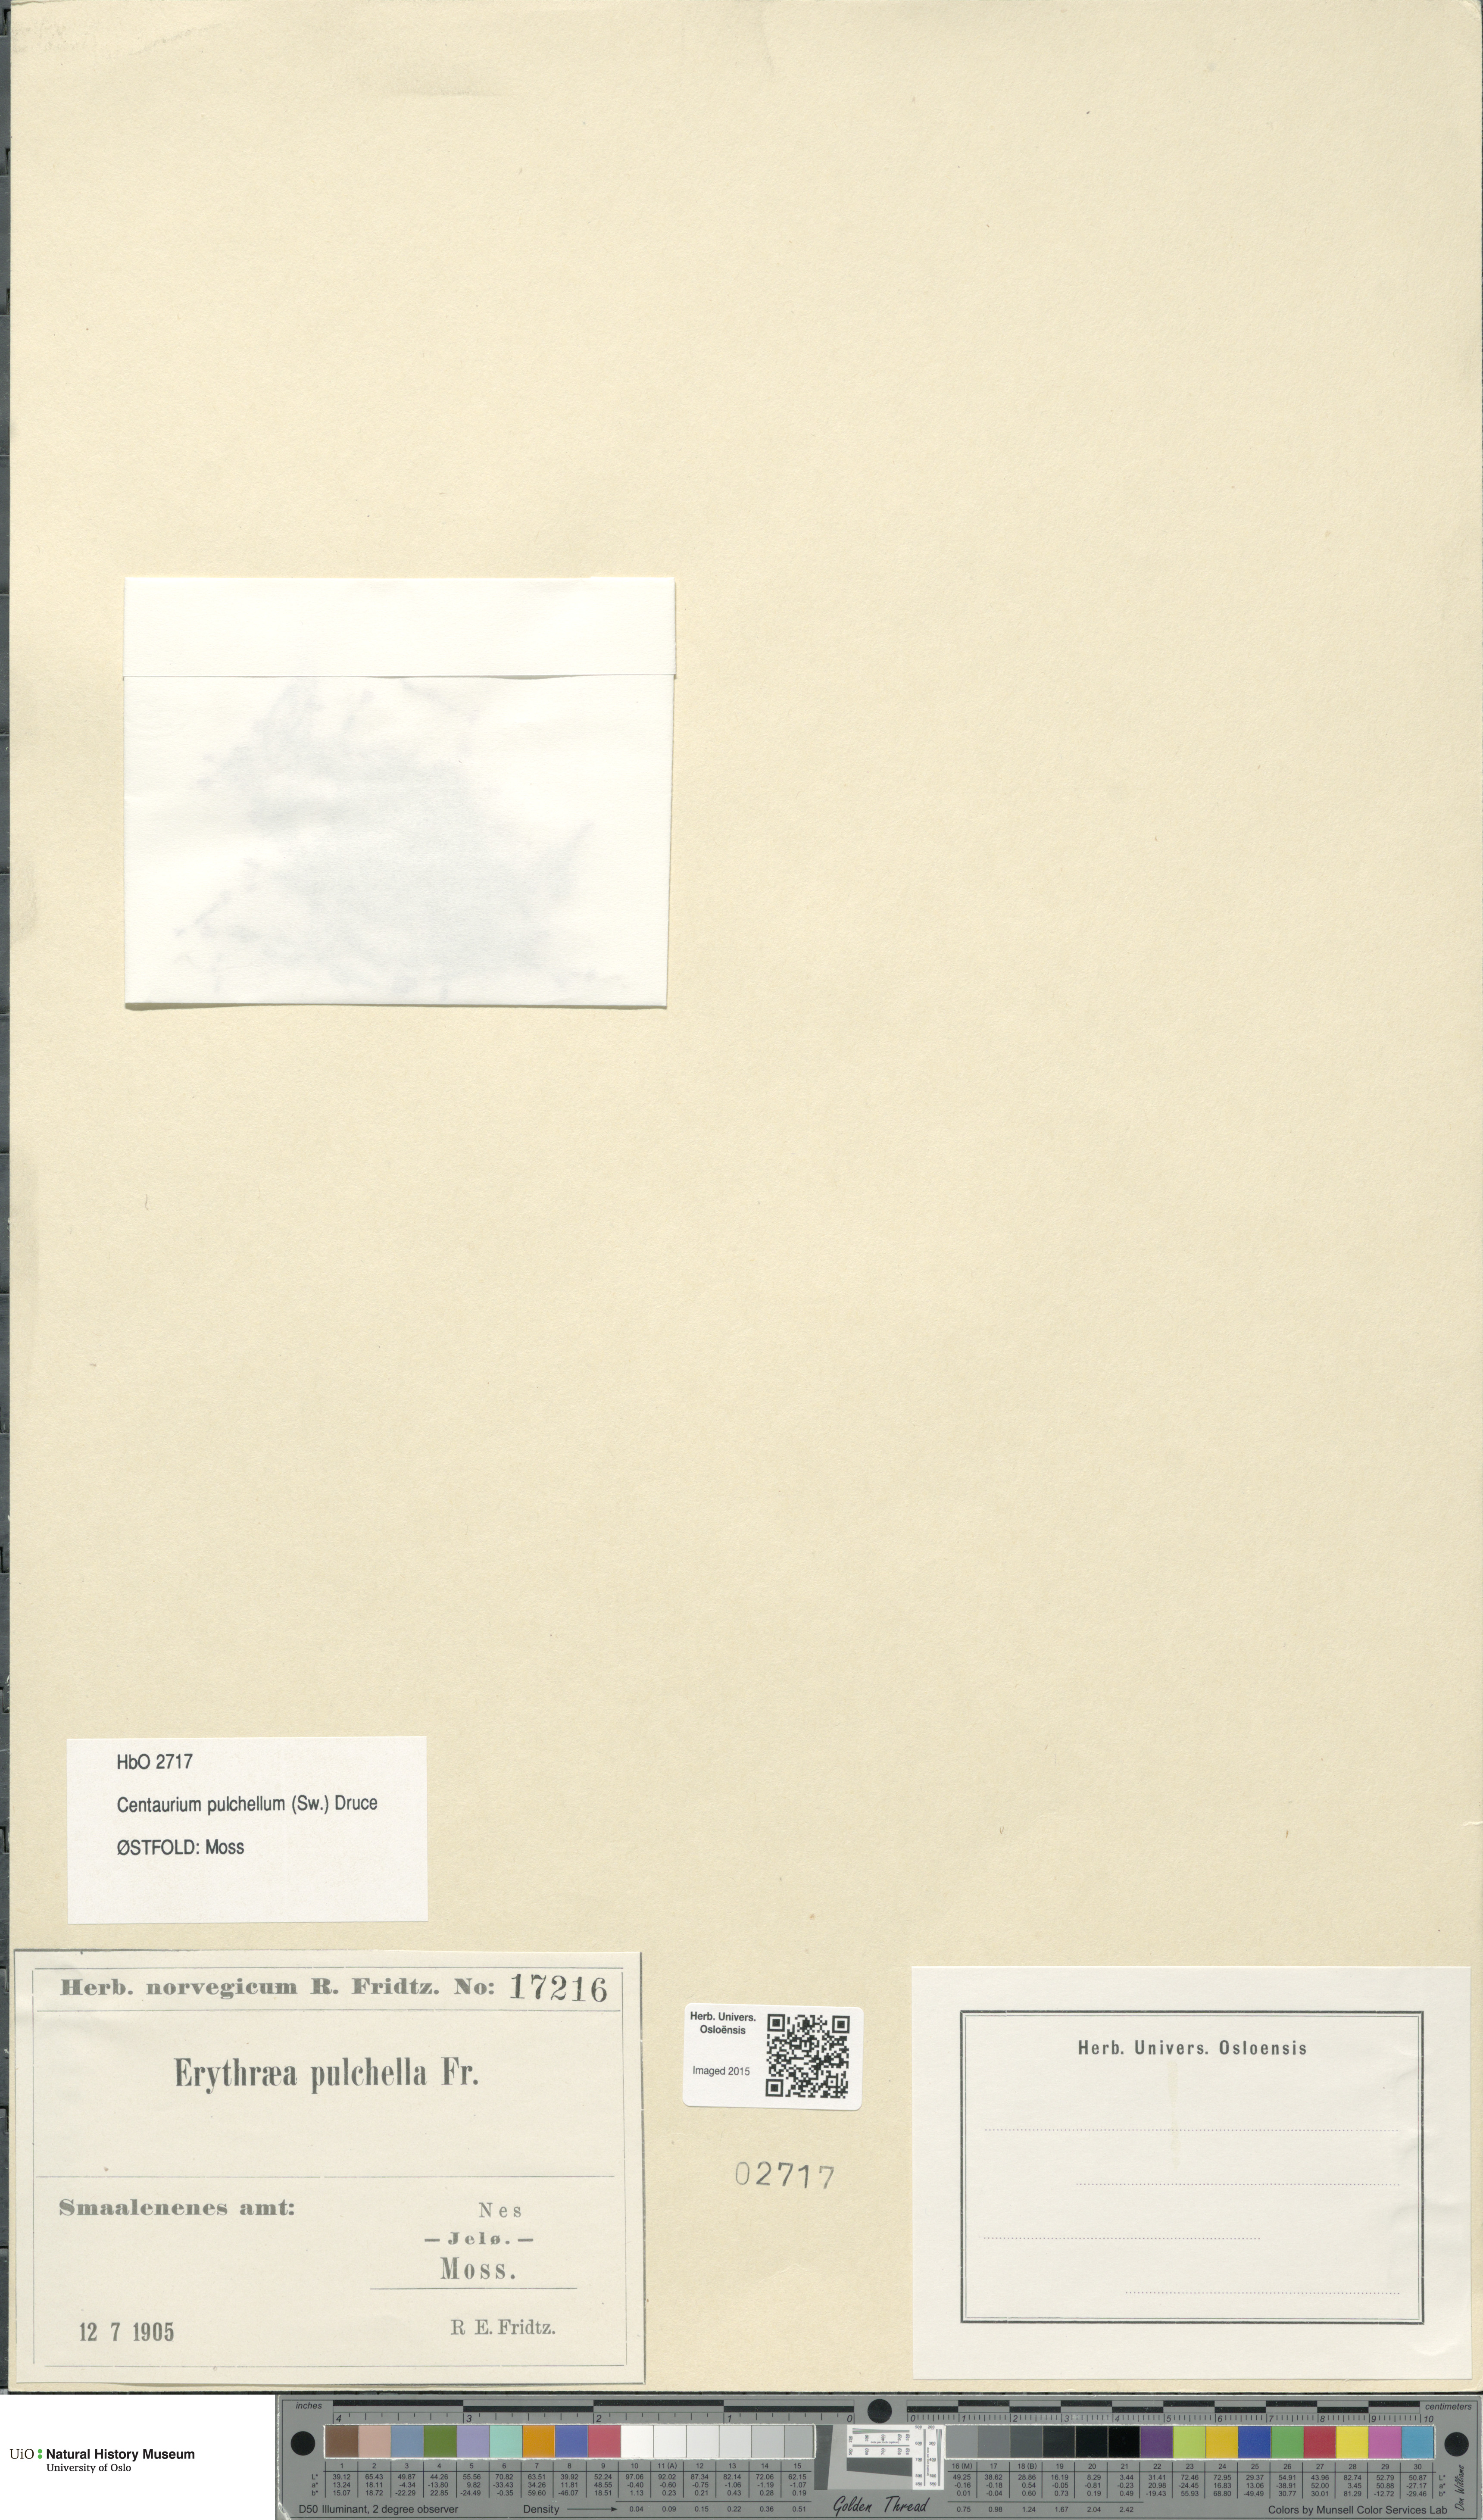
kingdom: Plantae
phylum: Tracheophyta
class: Magnoliopsida
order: Gentianales
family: Gentianaceae
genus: Centaurium
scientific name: Centaurium pulchellum
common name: Lesser centaury
